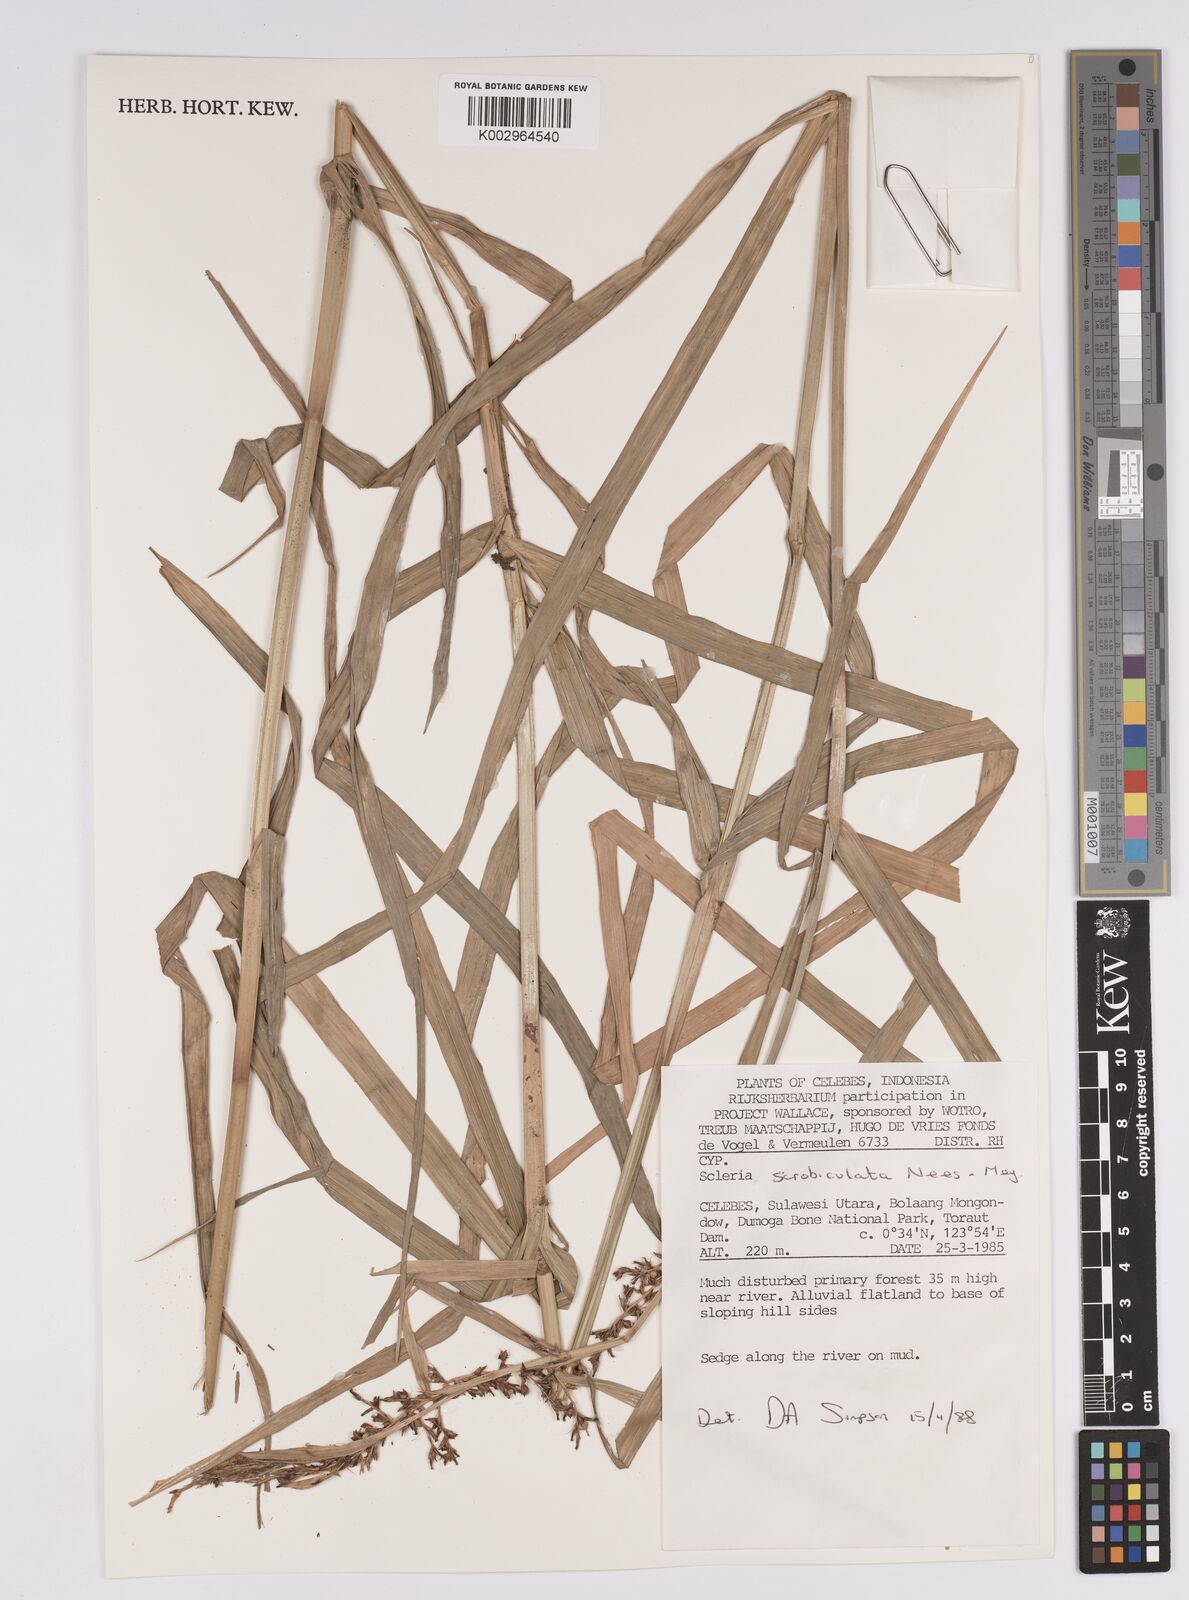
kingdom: Plantae
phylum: Tracheophyta
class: Liliopsida
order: Poales
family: Cyperaceae
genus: Scleria
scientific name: Scleria scrobiculata
